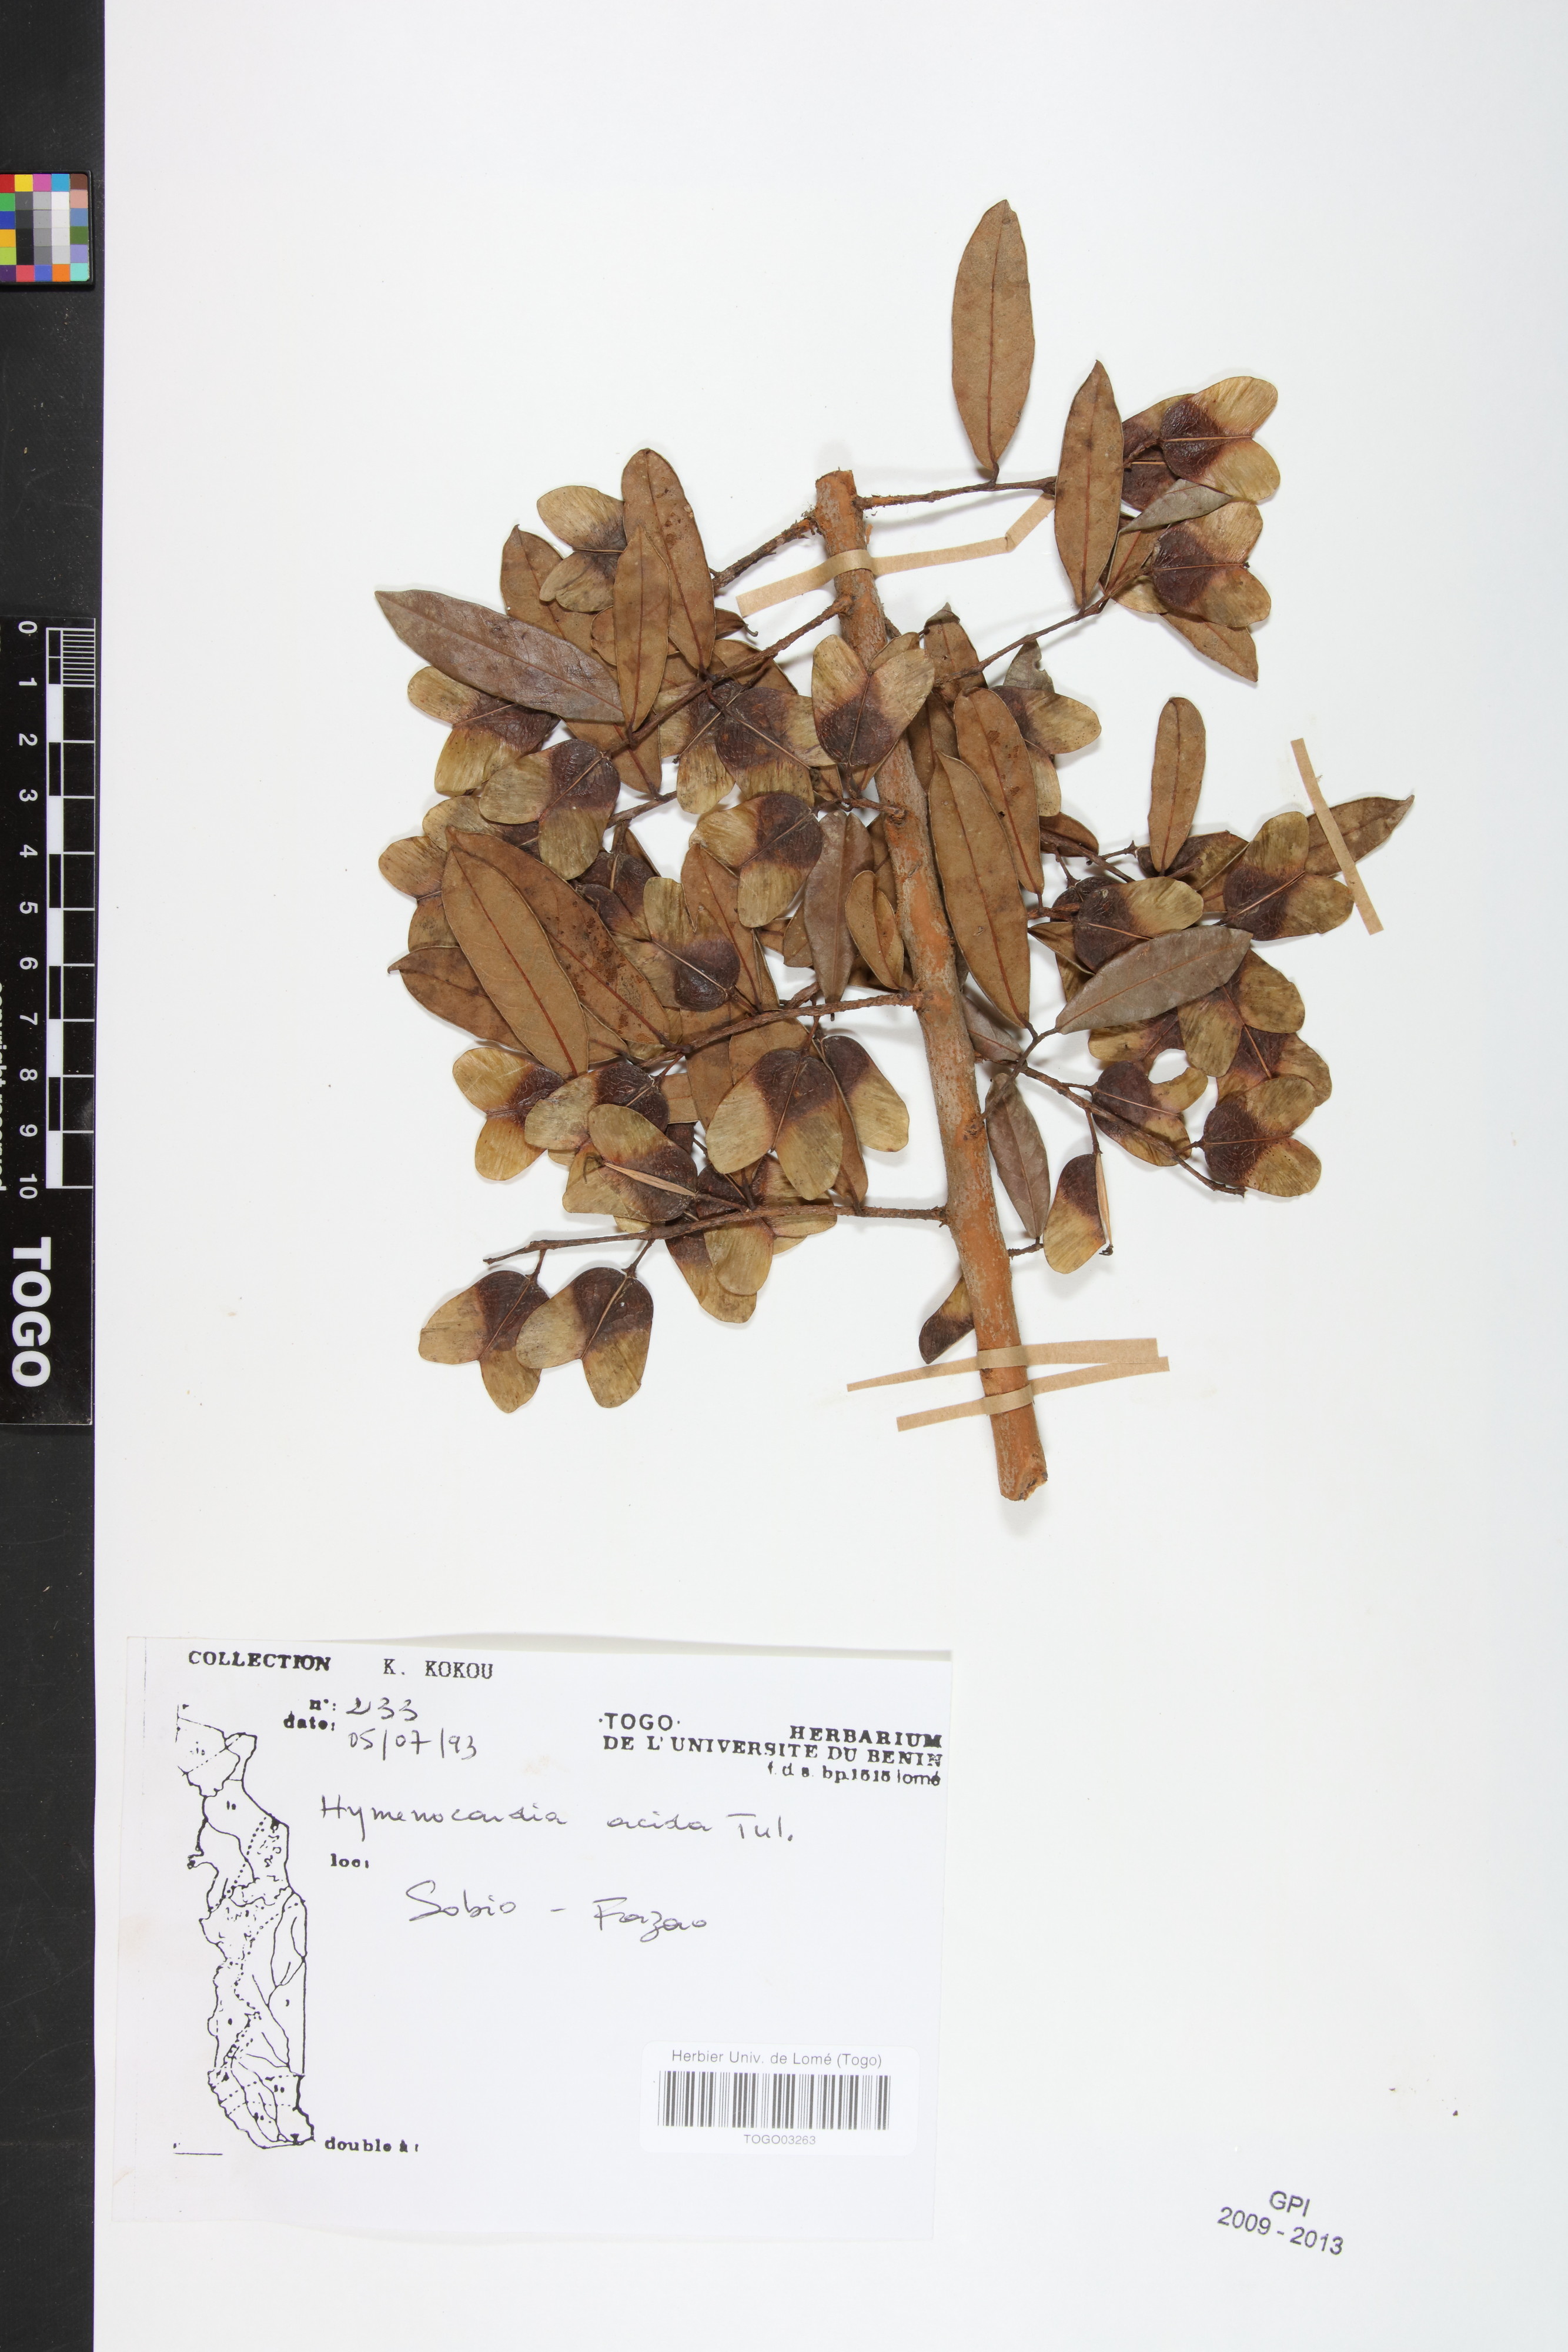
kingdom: Plantae
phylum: Tracheophyta
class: Magnoliopsida
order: Malpighiales
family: Phyllanthaceae
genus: Hymenocardia
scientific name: Hymenocardia acida
